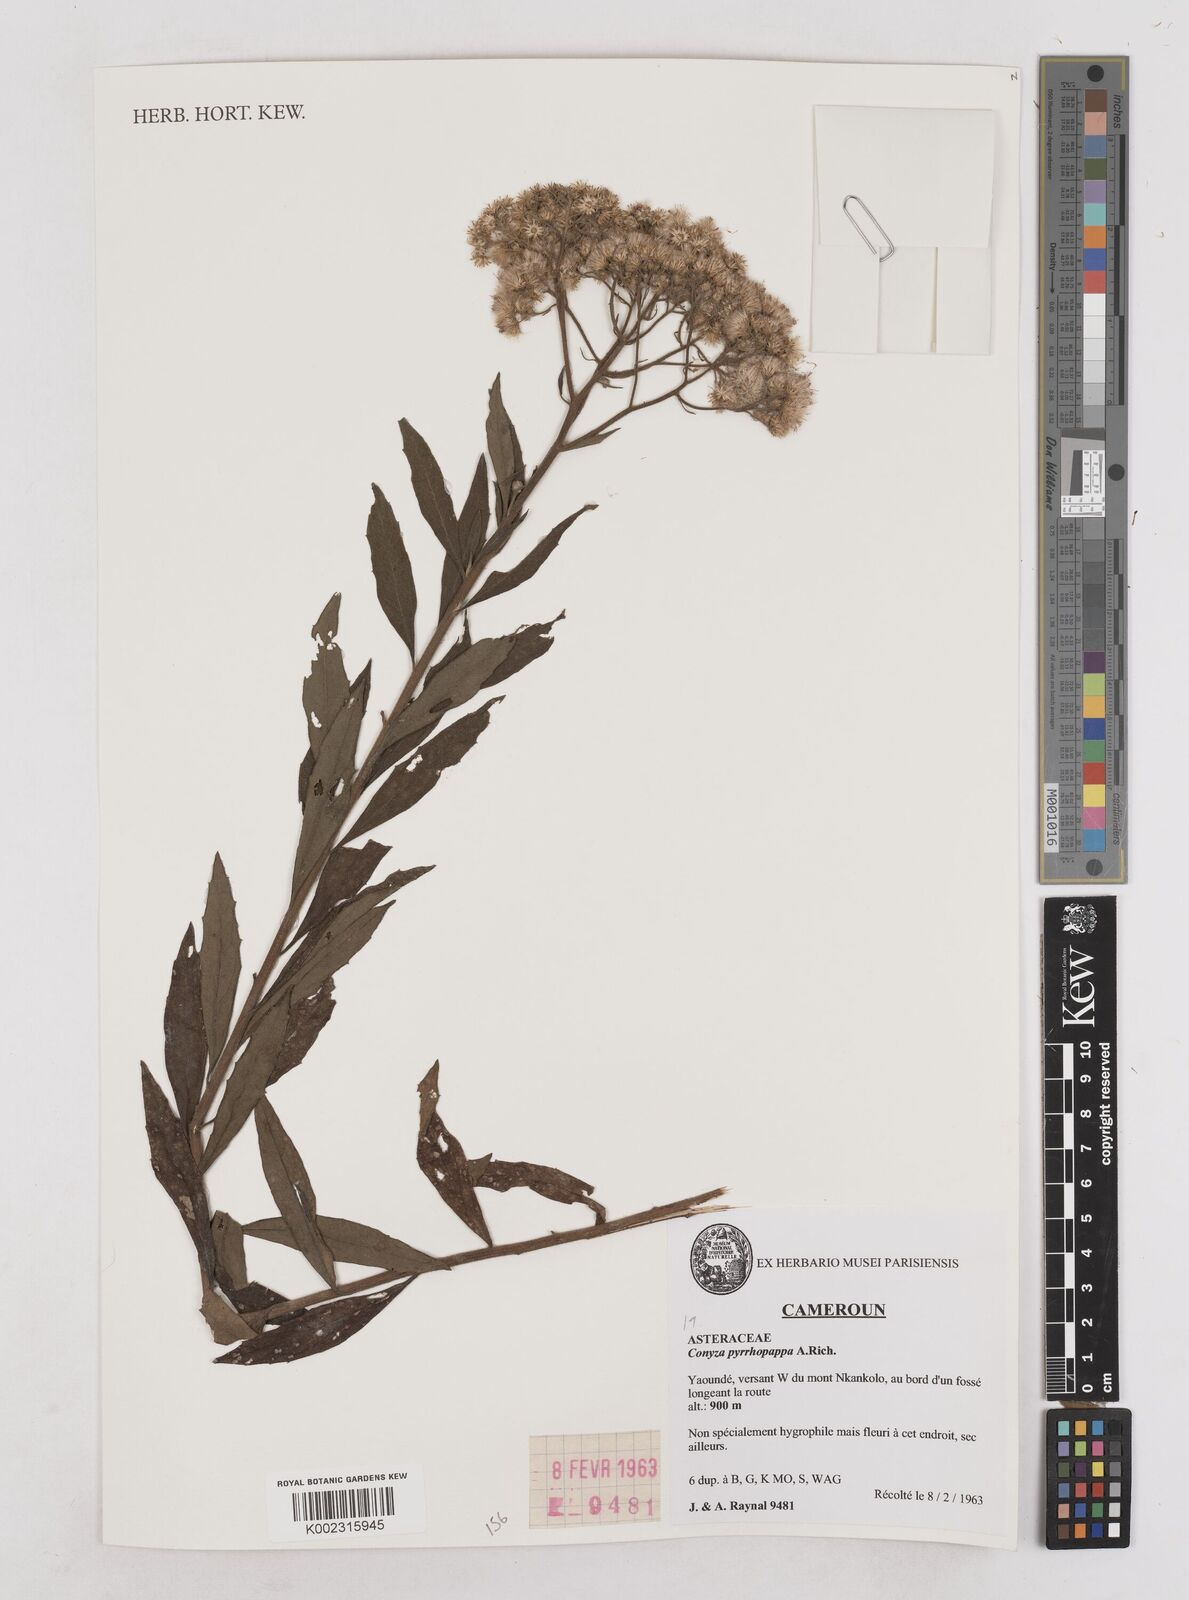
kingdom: Plantae
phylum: Tracheophyta
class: Magnoliopsida
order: Asterales
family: Asteraceae
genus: Microglossa
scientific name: Microglossa pyrrhopappa
